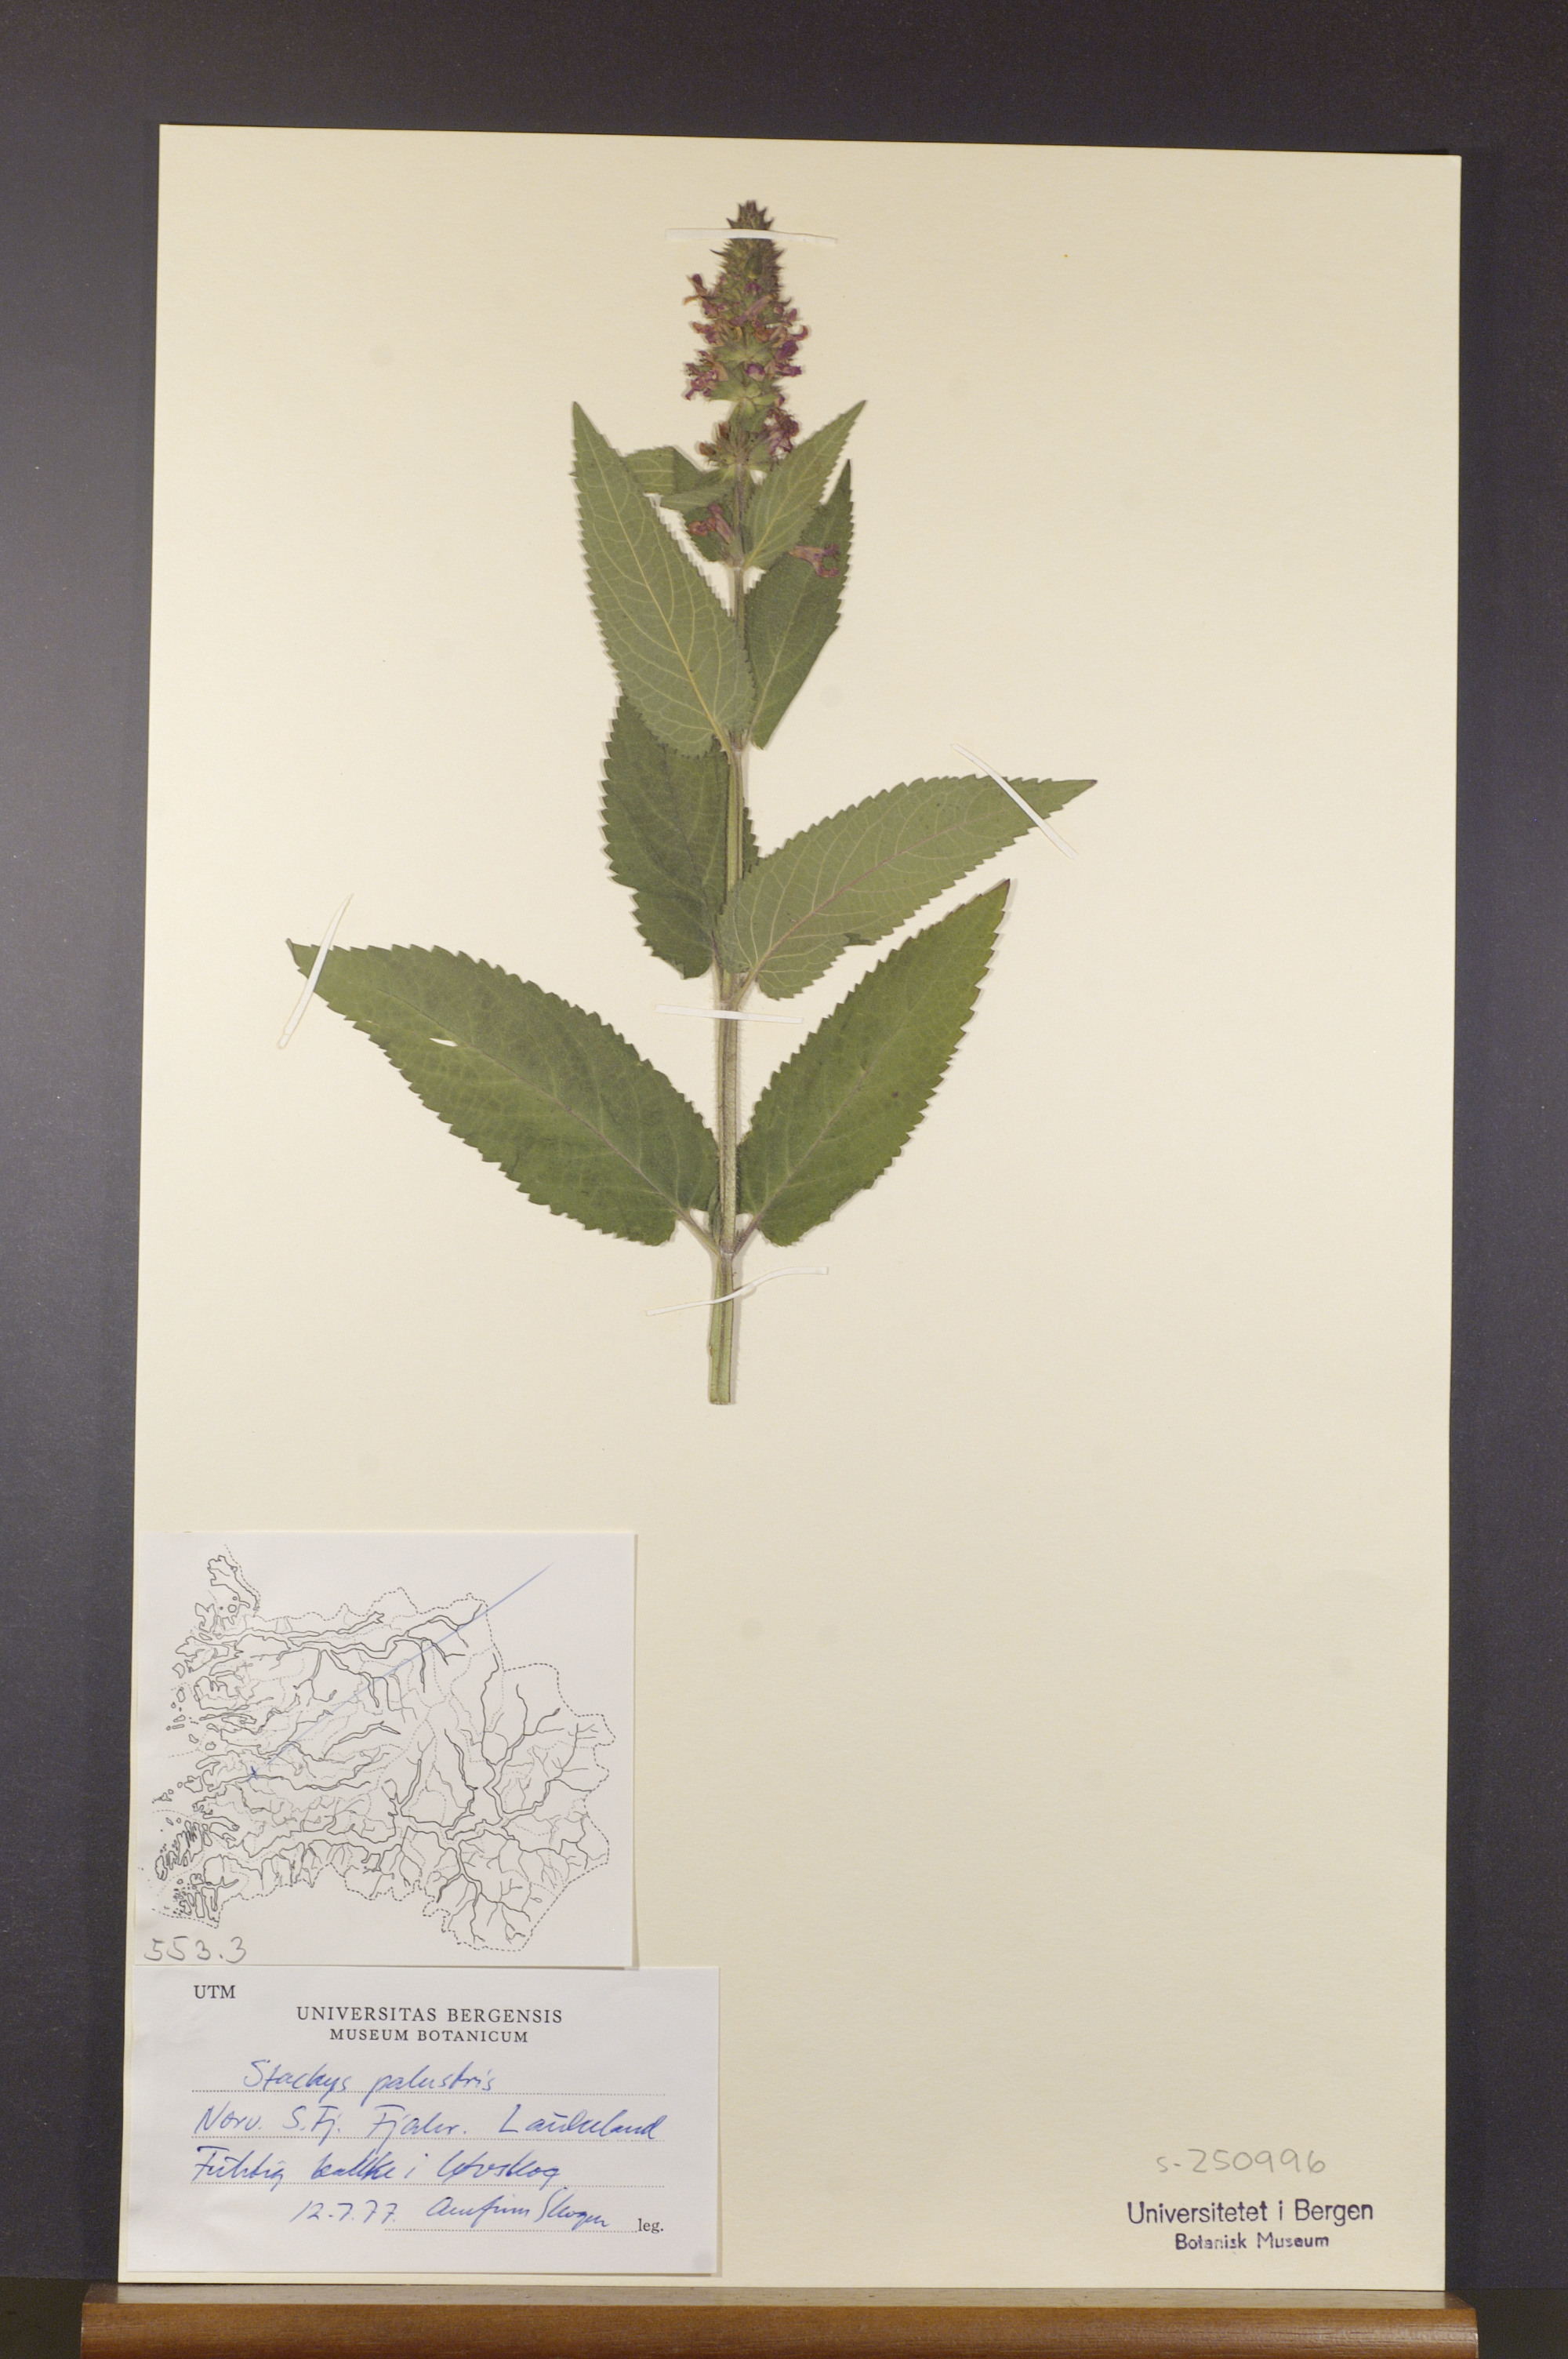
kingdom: Plantae
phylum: Tracheophyta
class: Magnoliopsida
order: Lamiales
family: Lamiaceae
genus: Stachys
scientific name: Stachys palustris
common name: Marsh woundwort
